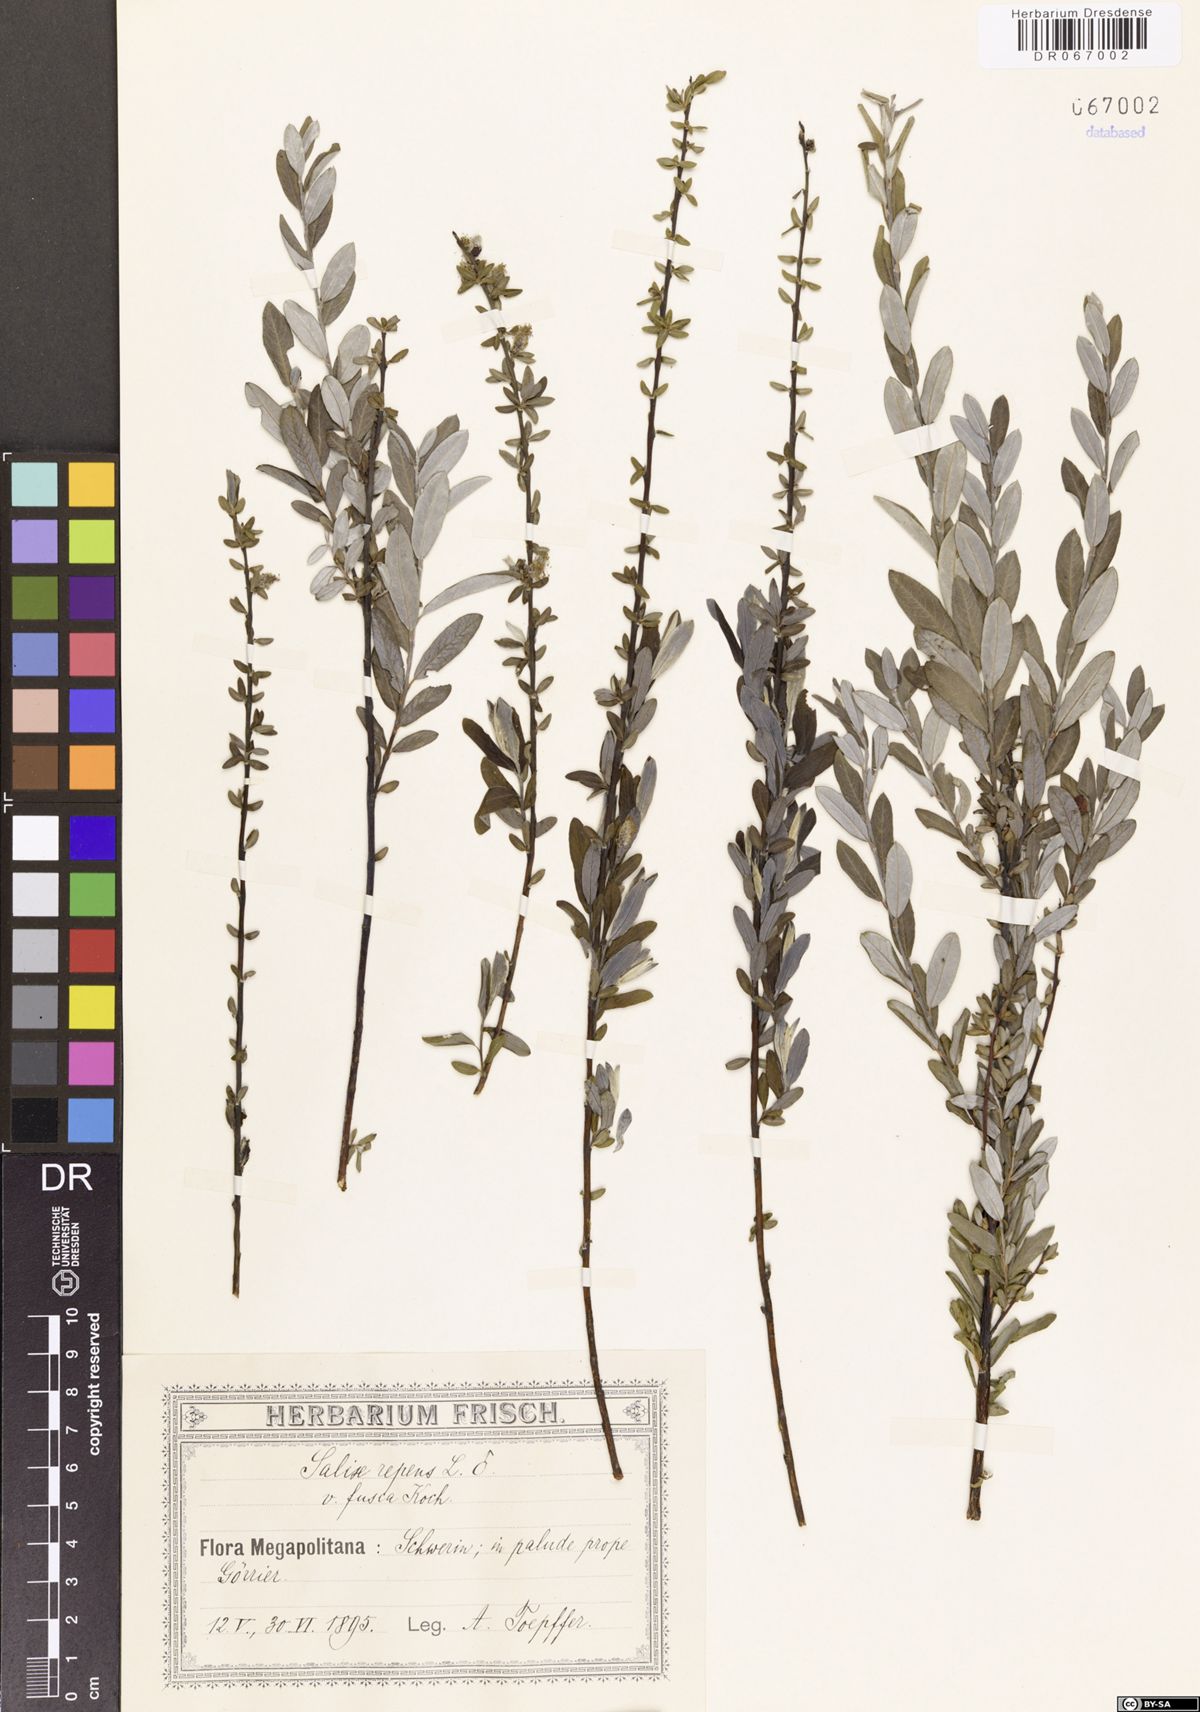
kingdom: Plantae
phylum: Tracheophyta
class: Magnoliopsida
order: Malpighiales
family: Salicaceae
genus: Salix
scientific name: Salix repens
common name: Creeping willow
